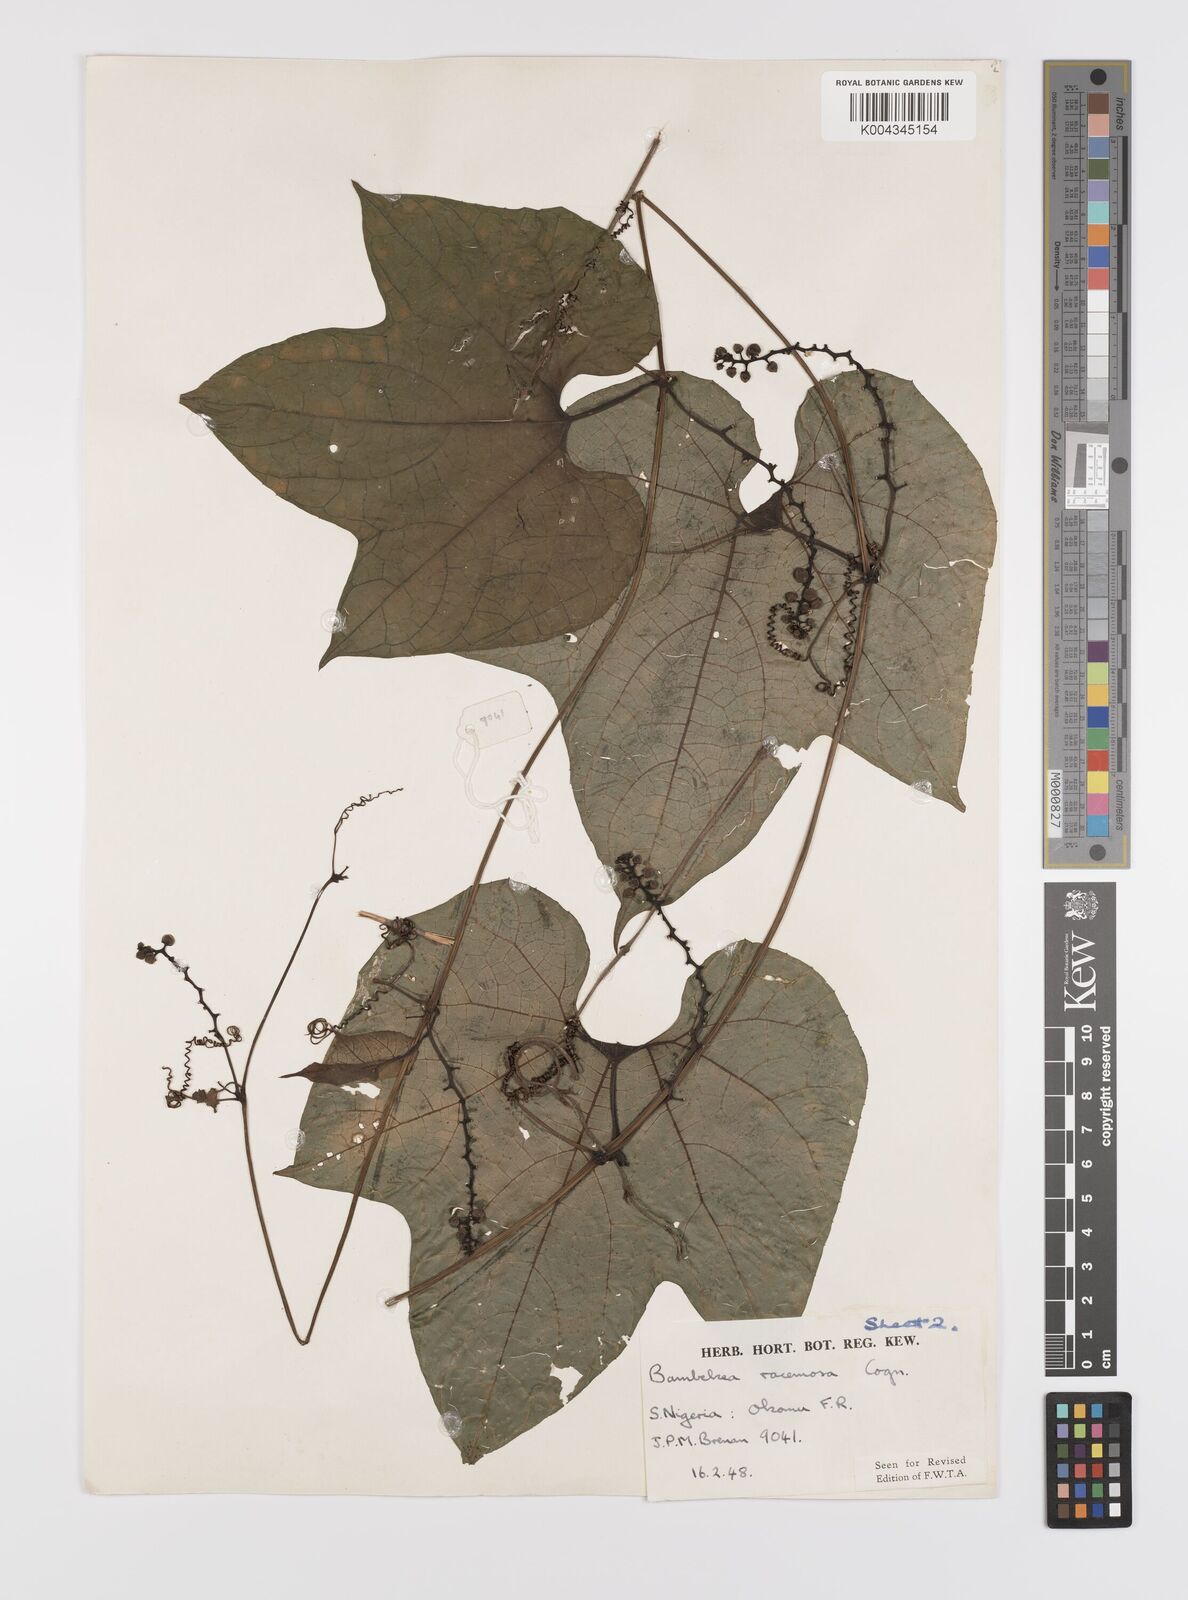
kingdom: Plantae
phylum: Tracheophyta
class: Magnoliopsida
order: Cucurbitales
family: Cucurbitaceae
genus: Bambekea
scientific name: Bambekea racemosa
